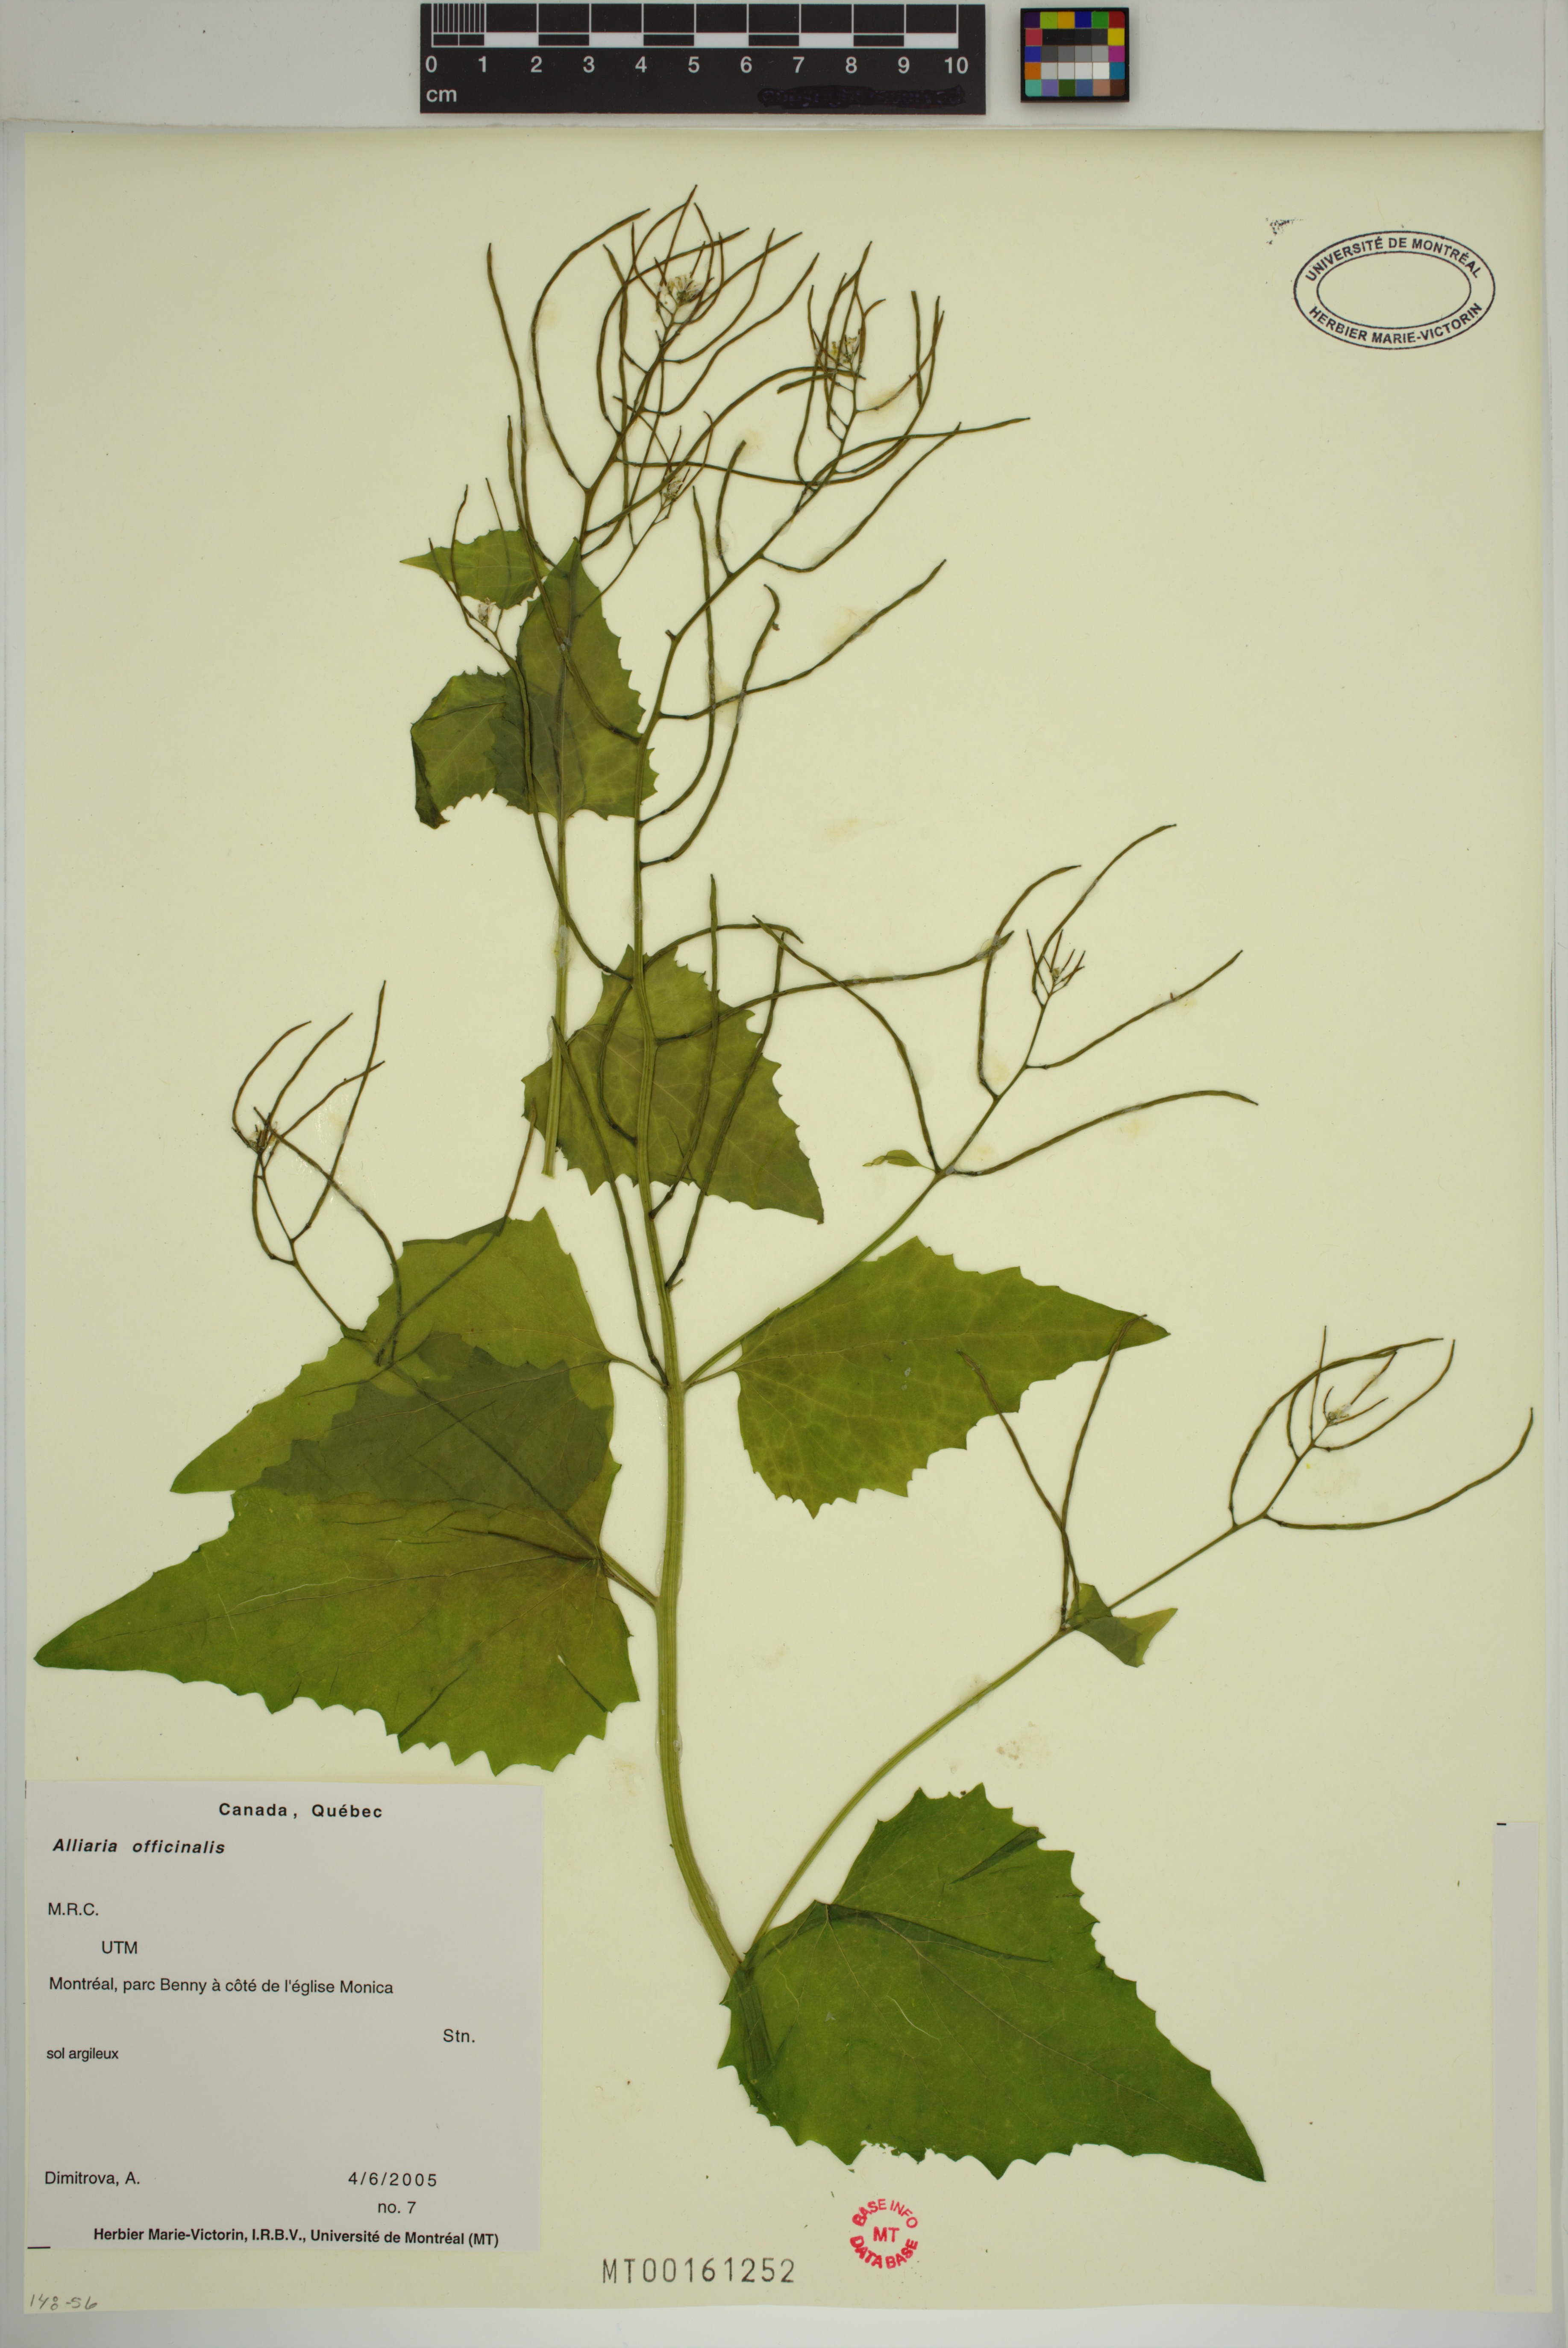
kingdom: Plantae
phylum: Tracheophyta
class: Magnoliopsida
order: Brassicales
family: Brassicaceae
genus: Alliaria
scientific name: Alliaria petiolata
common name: Garlic mustard
